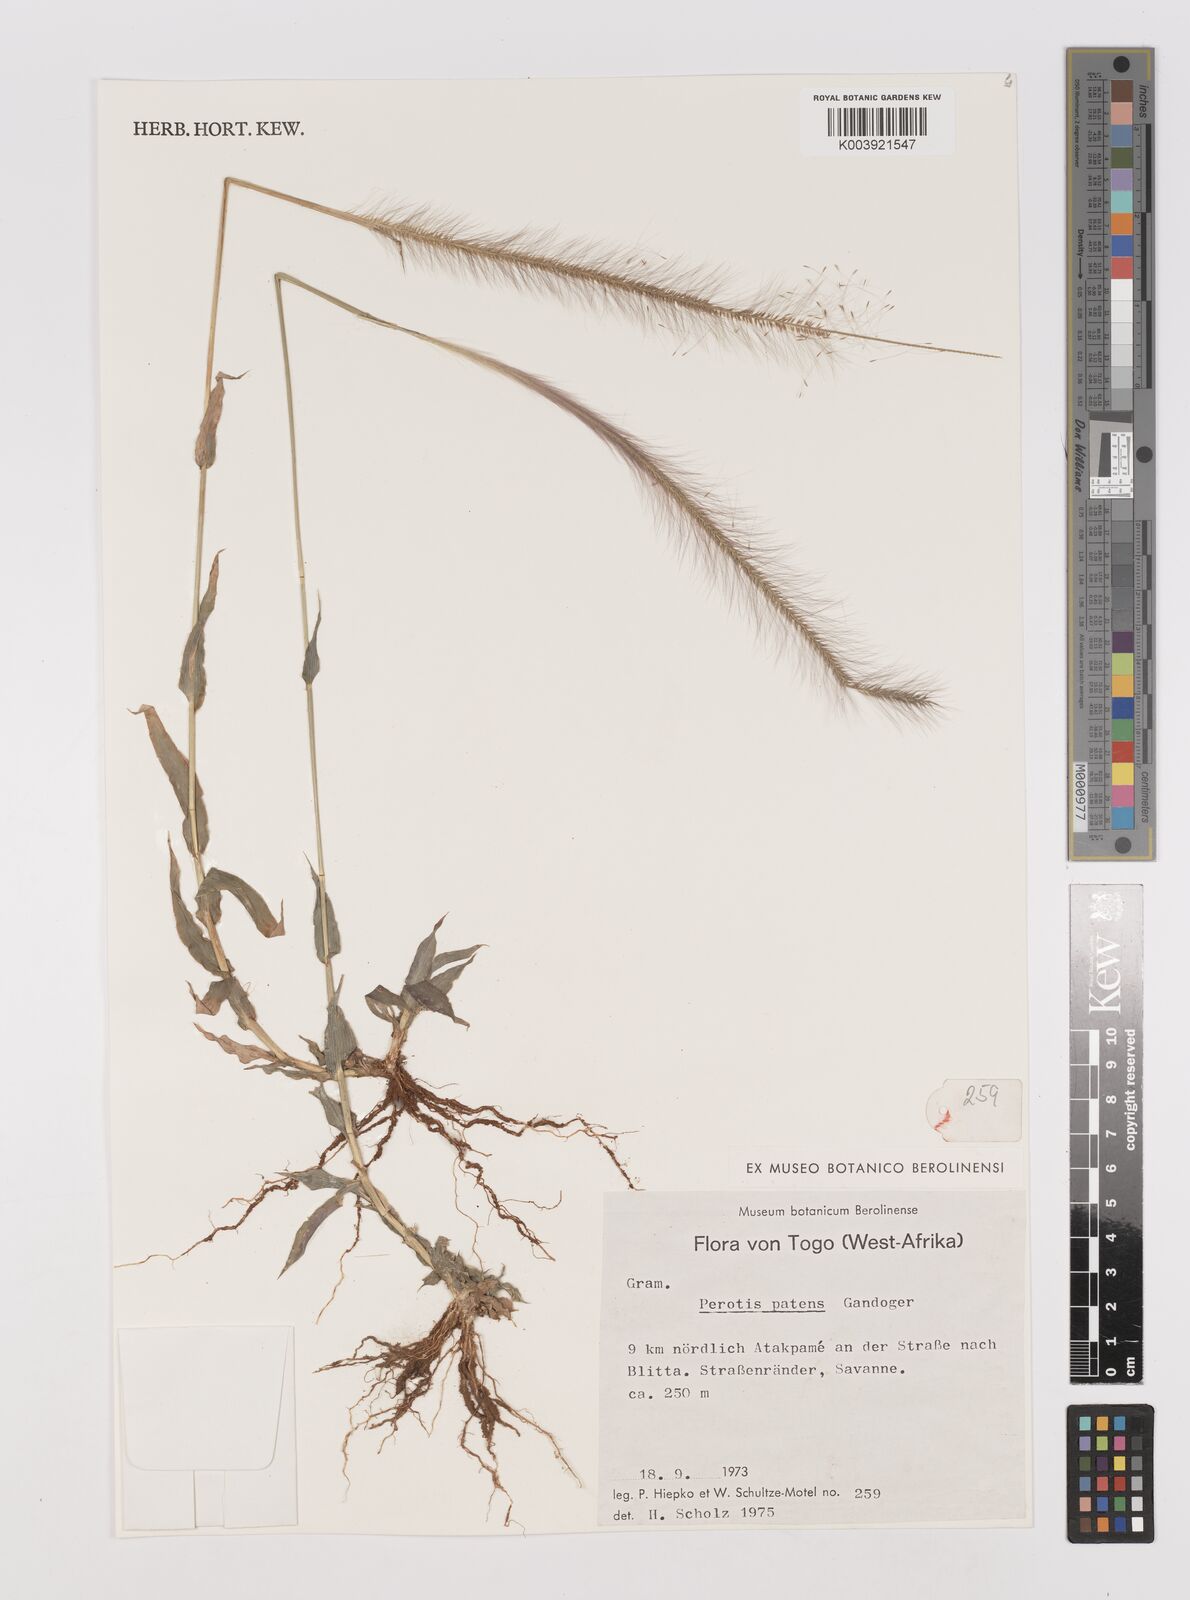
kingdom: Plantae
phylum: Tracheophyta
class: Liliopsida
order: Poales
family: Poaceae
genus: Perotis
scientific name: Perotis patens
